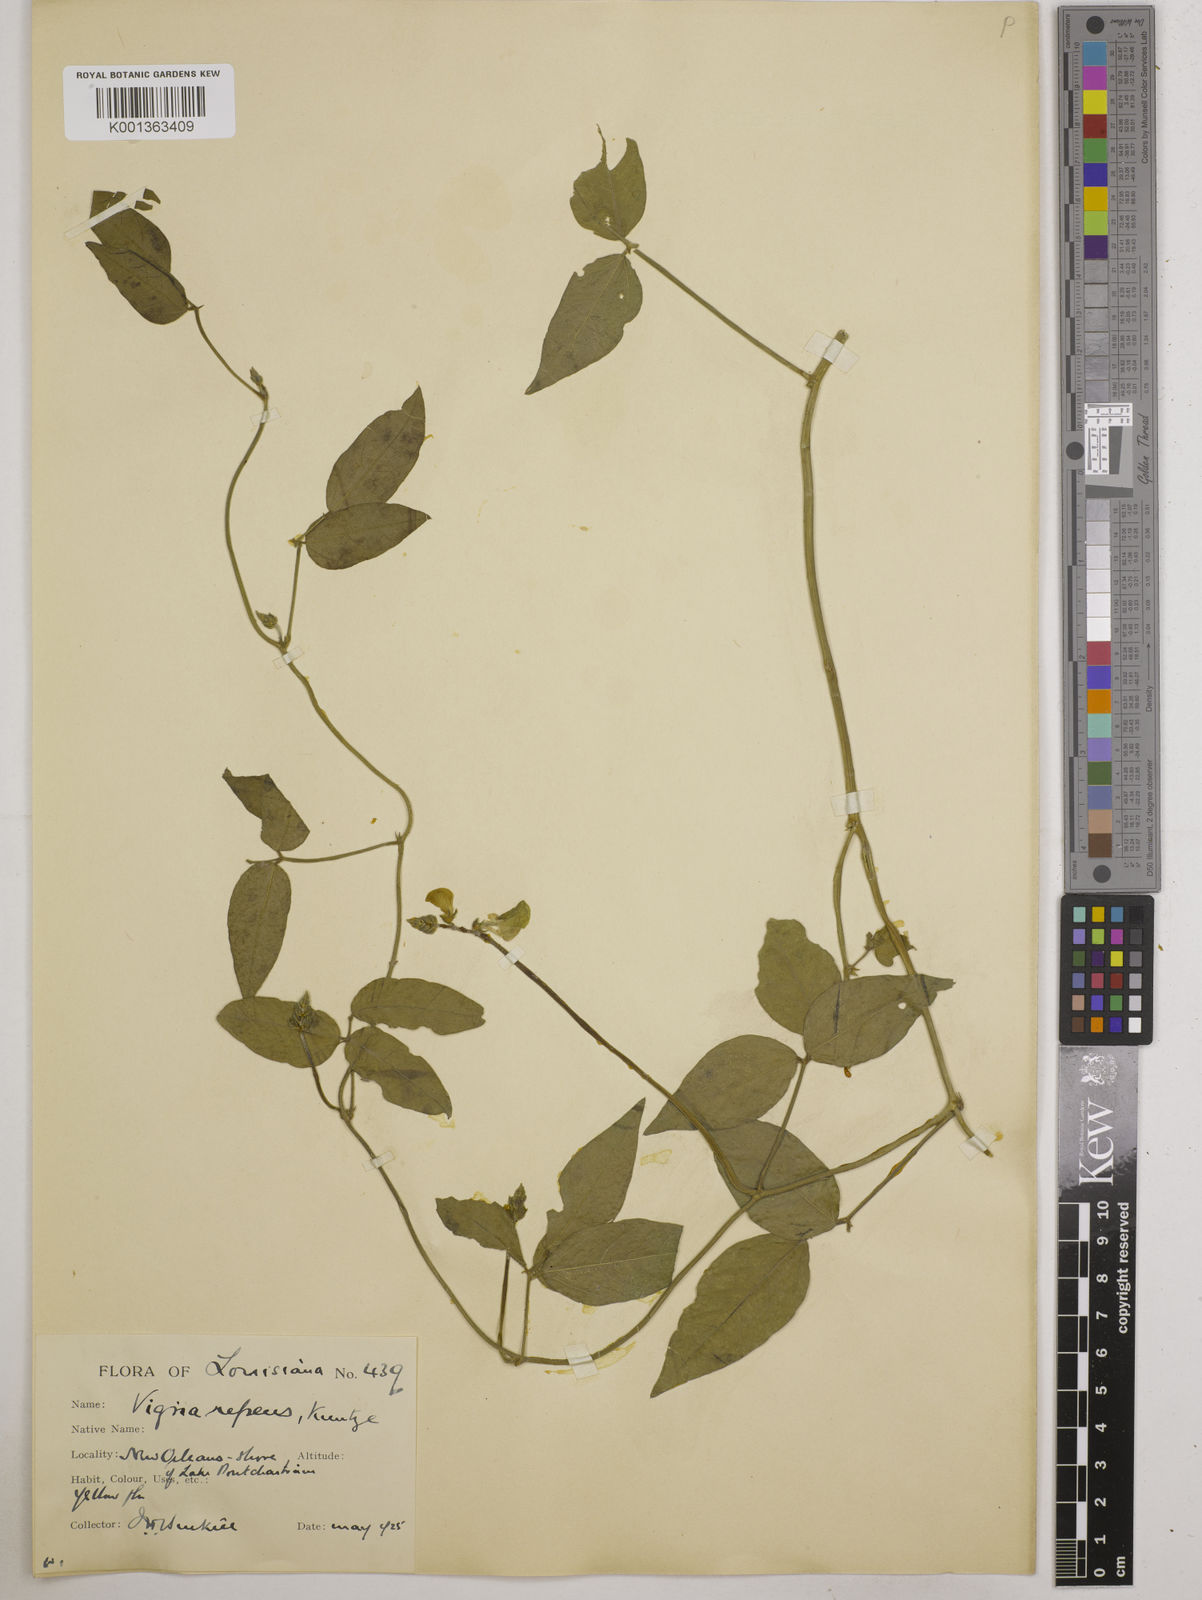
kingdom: Plantae
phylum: Tracheophyta
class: Magnoliopsida
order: Fabales
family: Fabaceae
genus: Vigna
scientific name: Vigna luteola
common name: Hairypod cowpea
